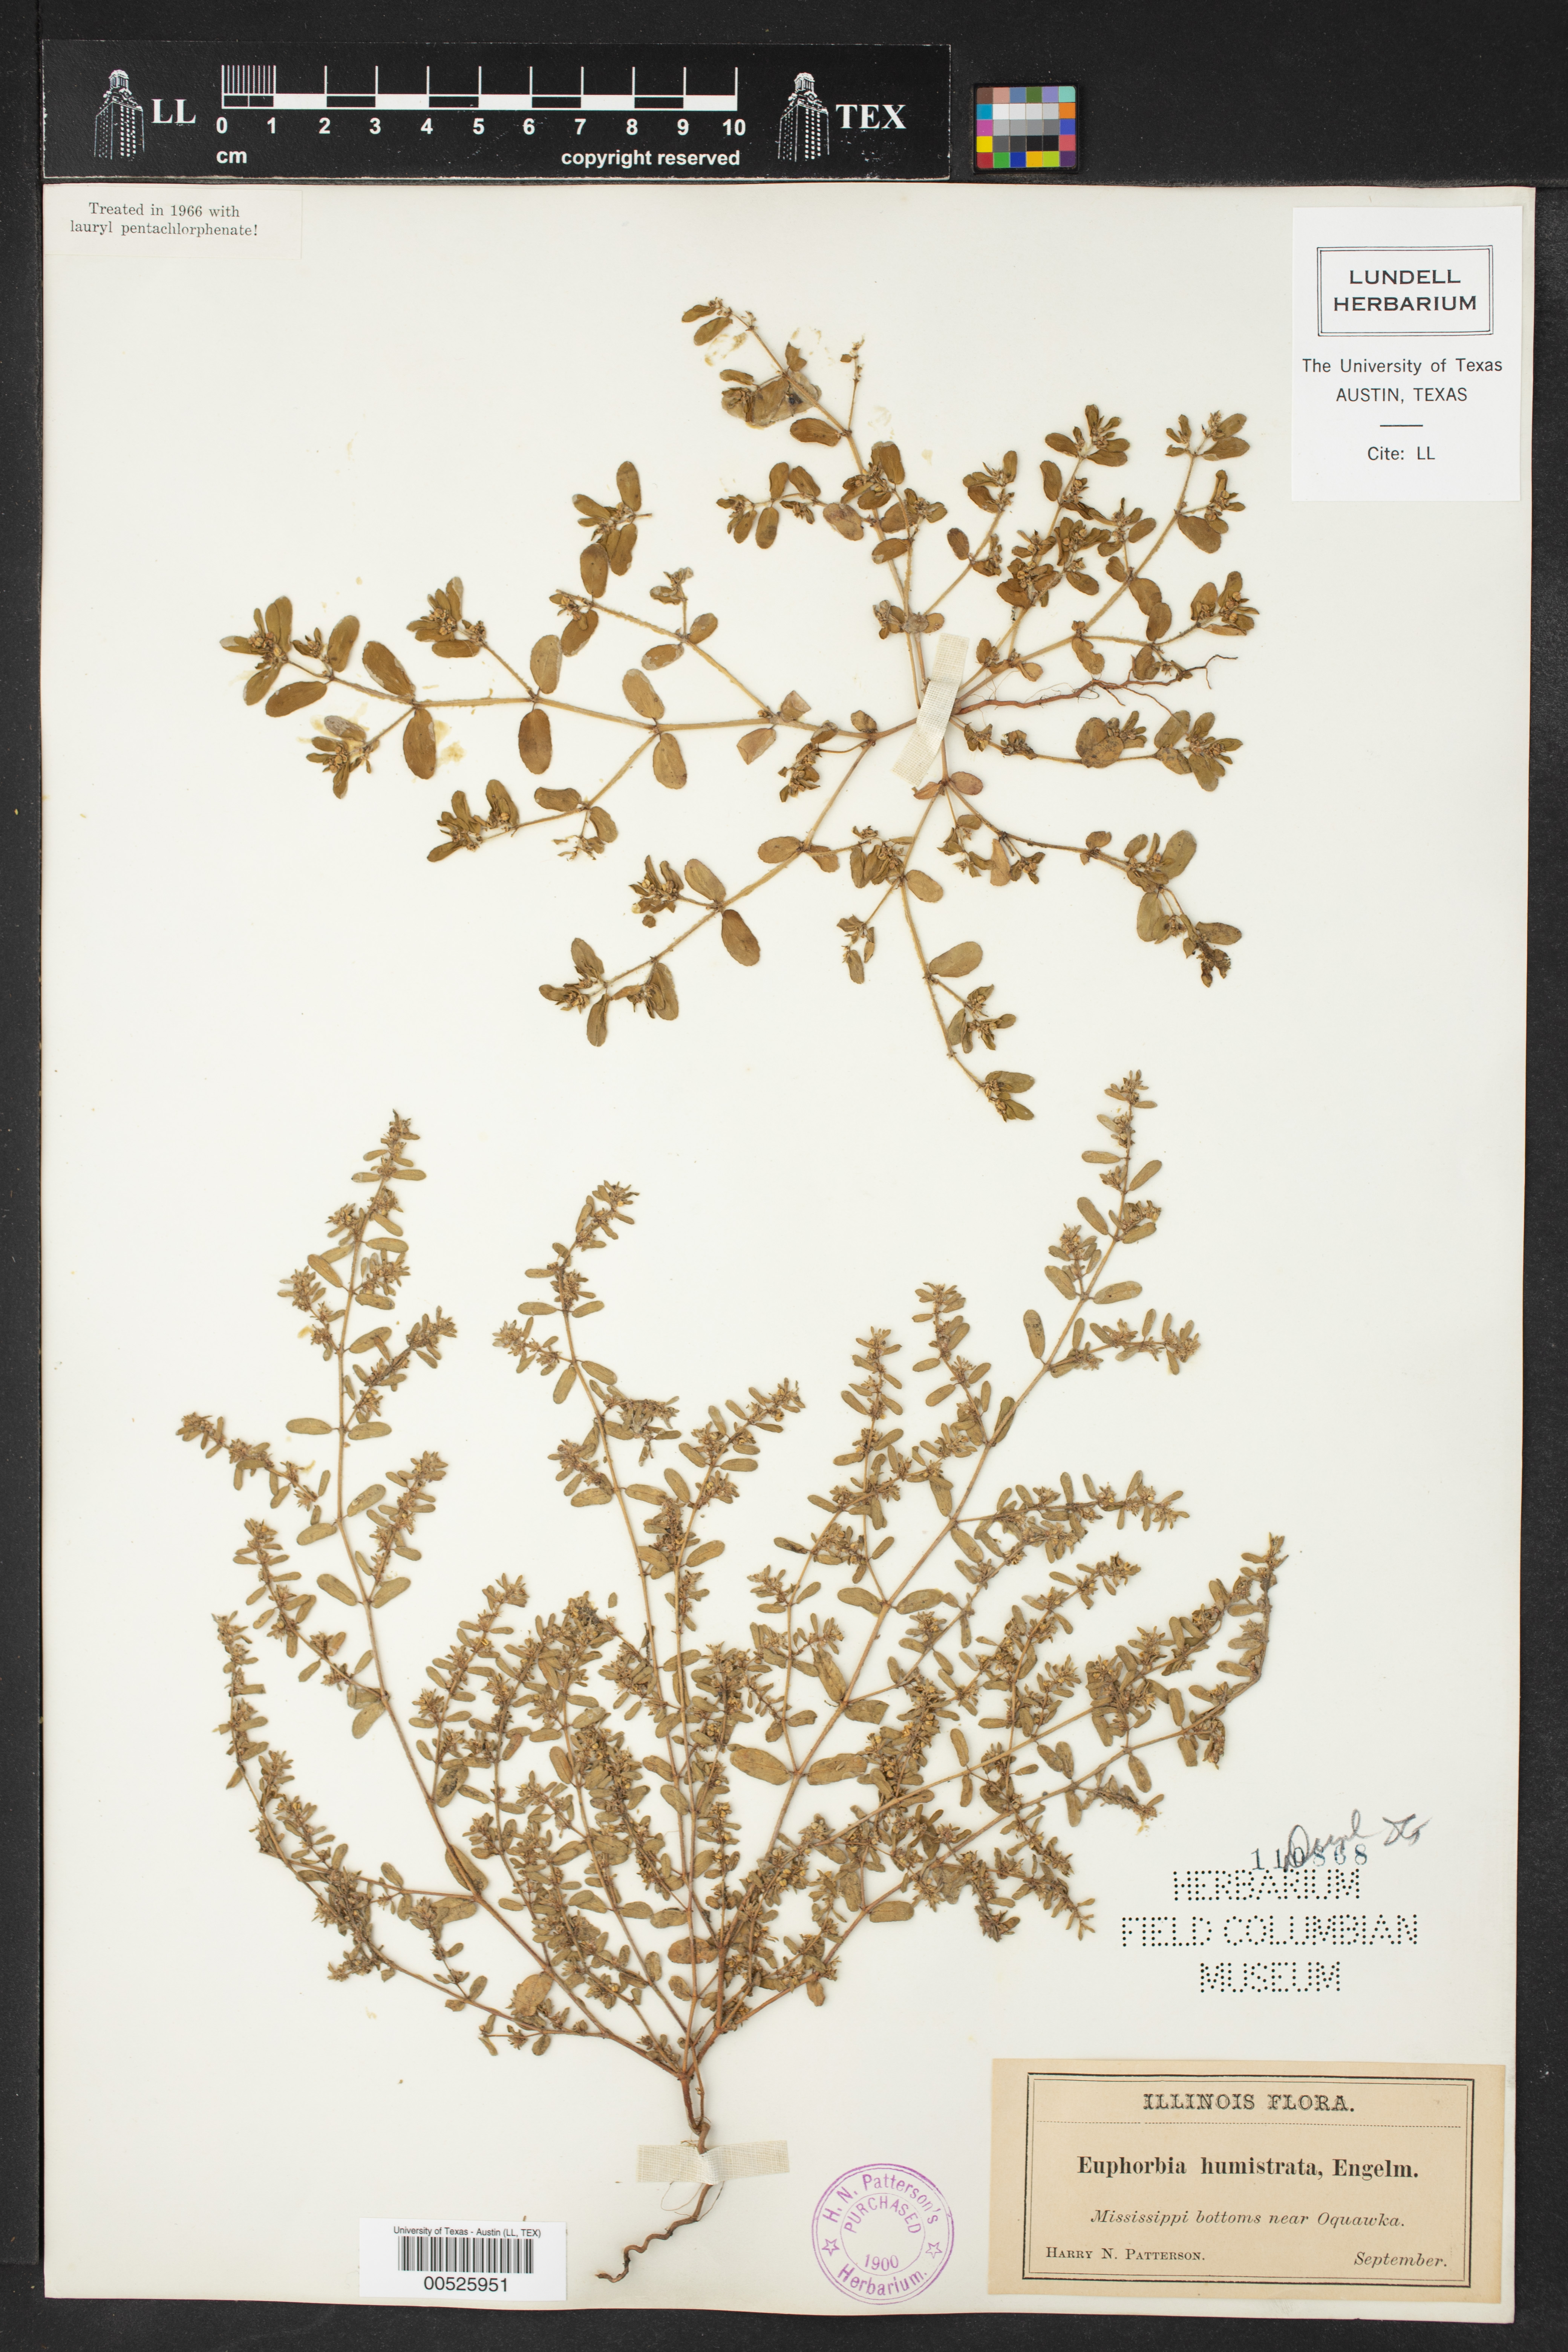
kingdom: Plantae
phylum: Tracheophyta
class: Magnoliopsida
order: Malpighiales
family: Euphorbiaceae
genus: Euphorbia
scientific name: Euphorbia humistrata
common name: Hairy spreading spurge
